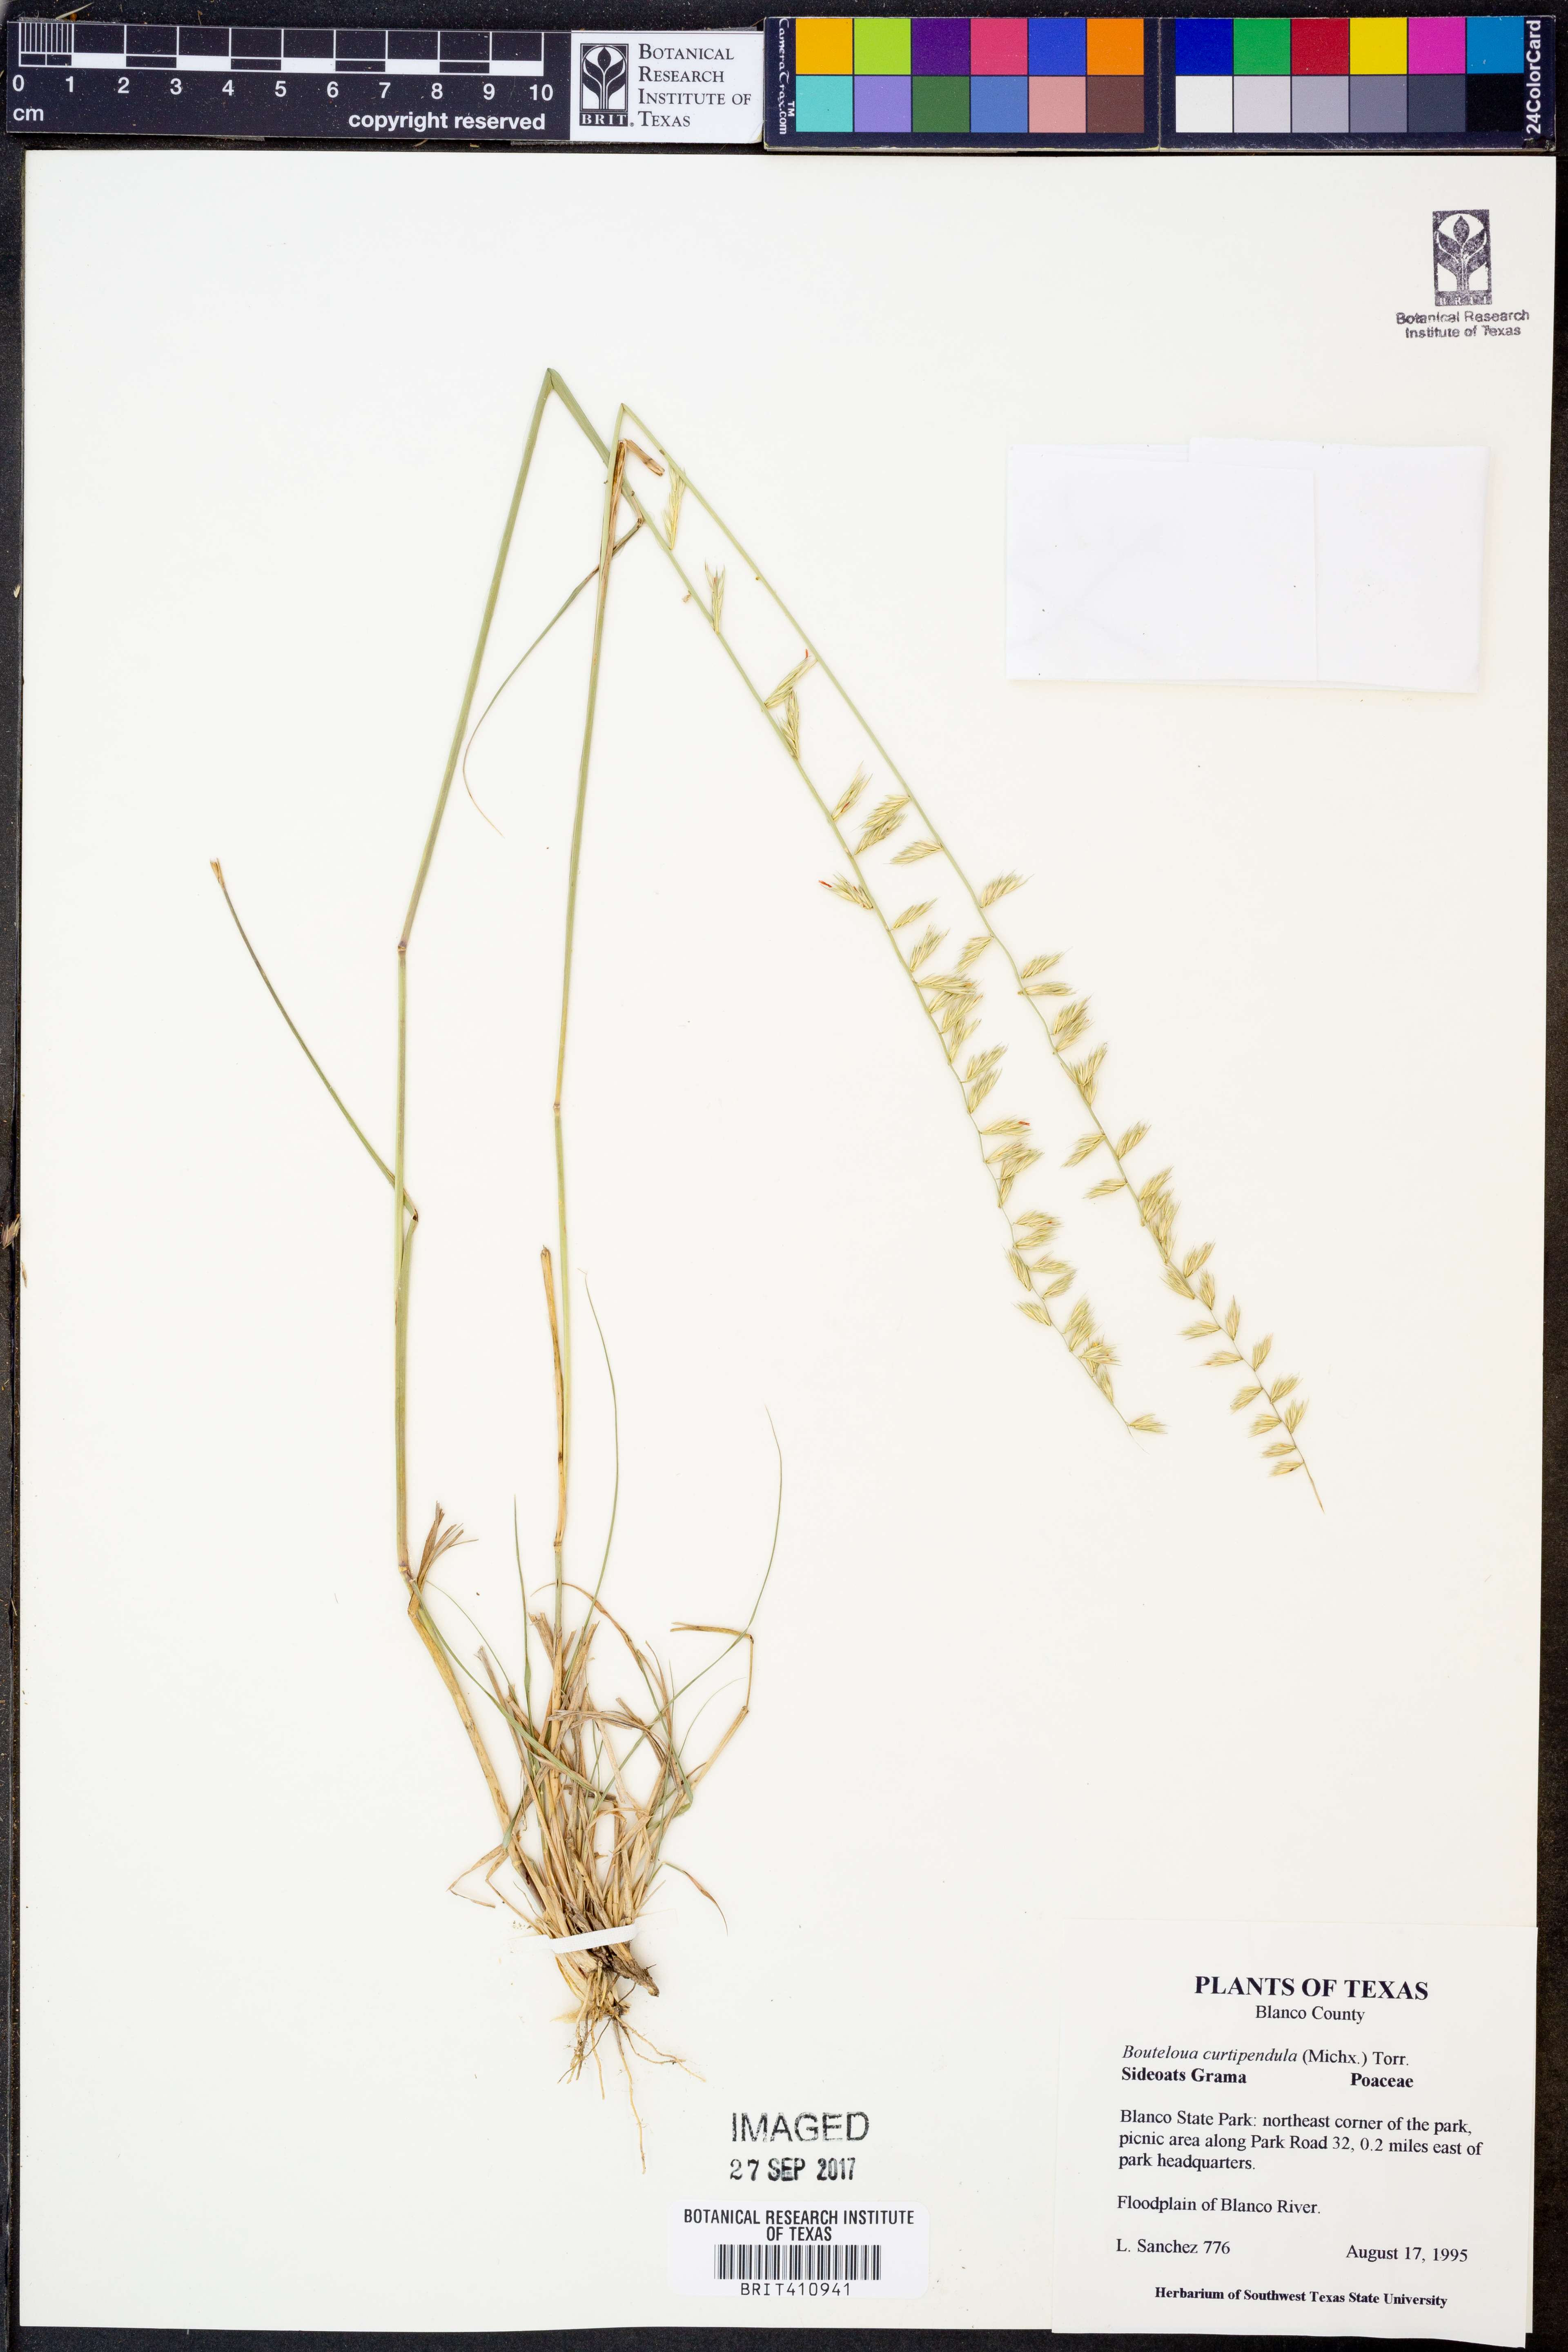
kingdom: Plantae
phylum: Tracheophyta
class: Liliopsida
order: Poales
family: Poaceae
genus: Bouteloua
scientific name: Bouteloua curtipendula
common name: Side-oats grama
